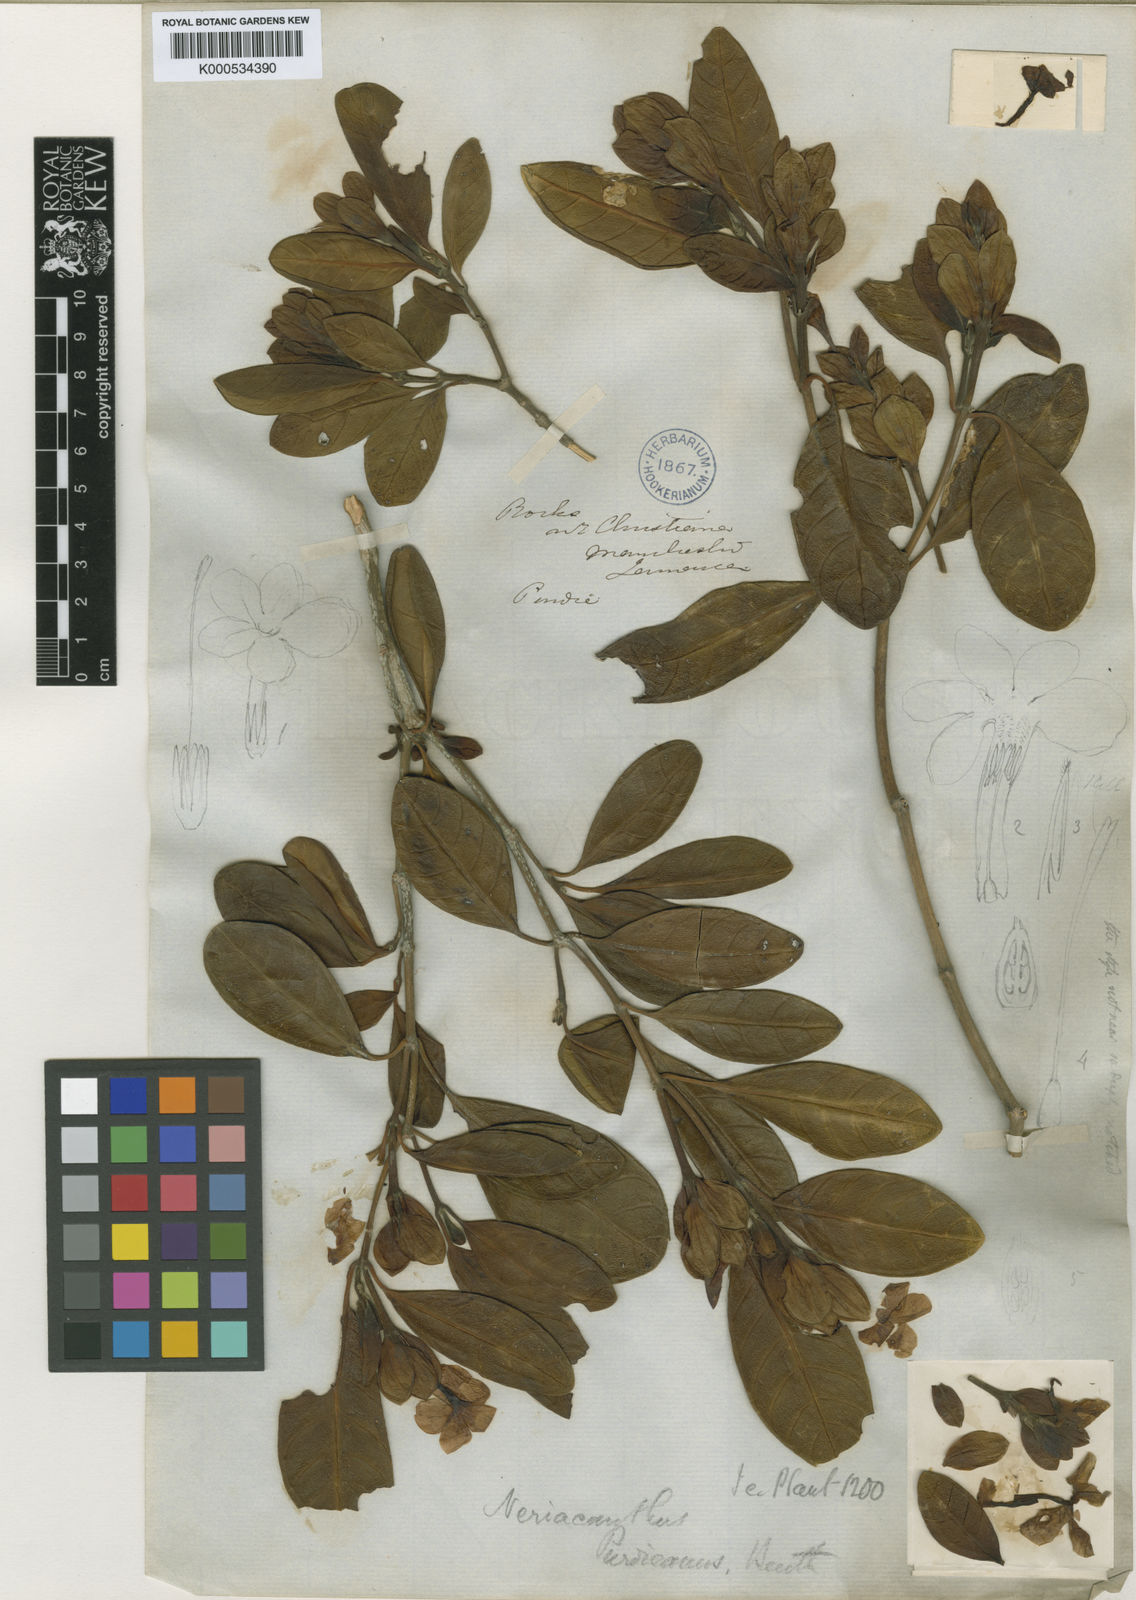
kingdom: Plantae
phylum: Tracheophyta
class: Magnoliopsida
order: Lamiales
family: Acanthaceae
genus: Neriacanthus
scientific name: Neriacanthus purdieanus
